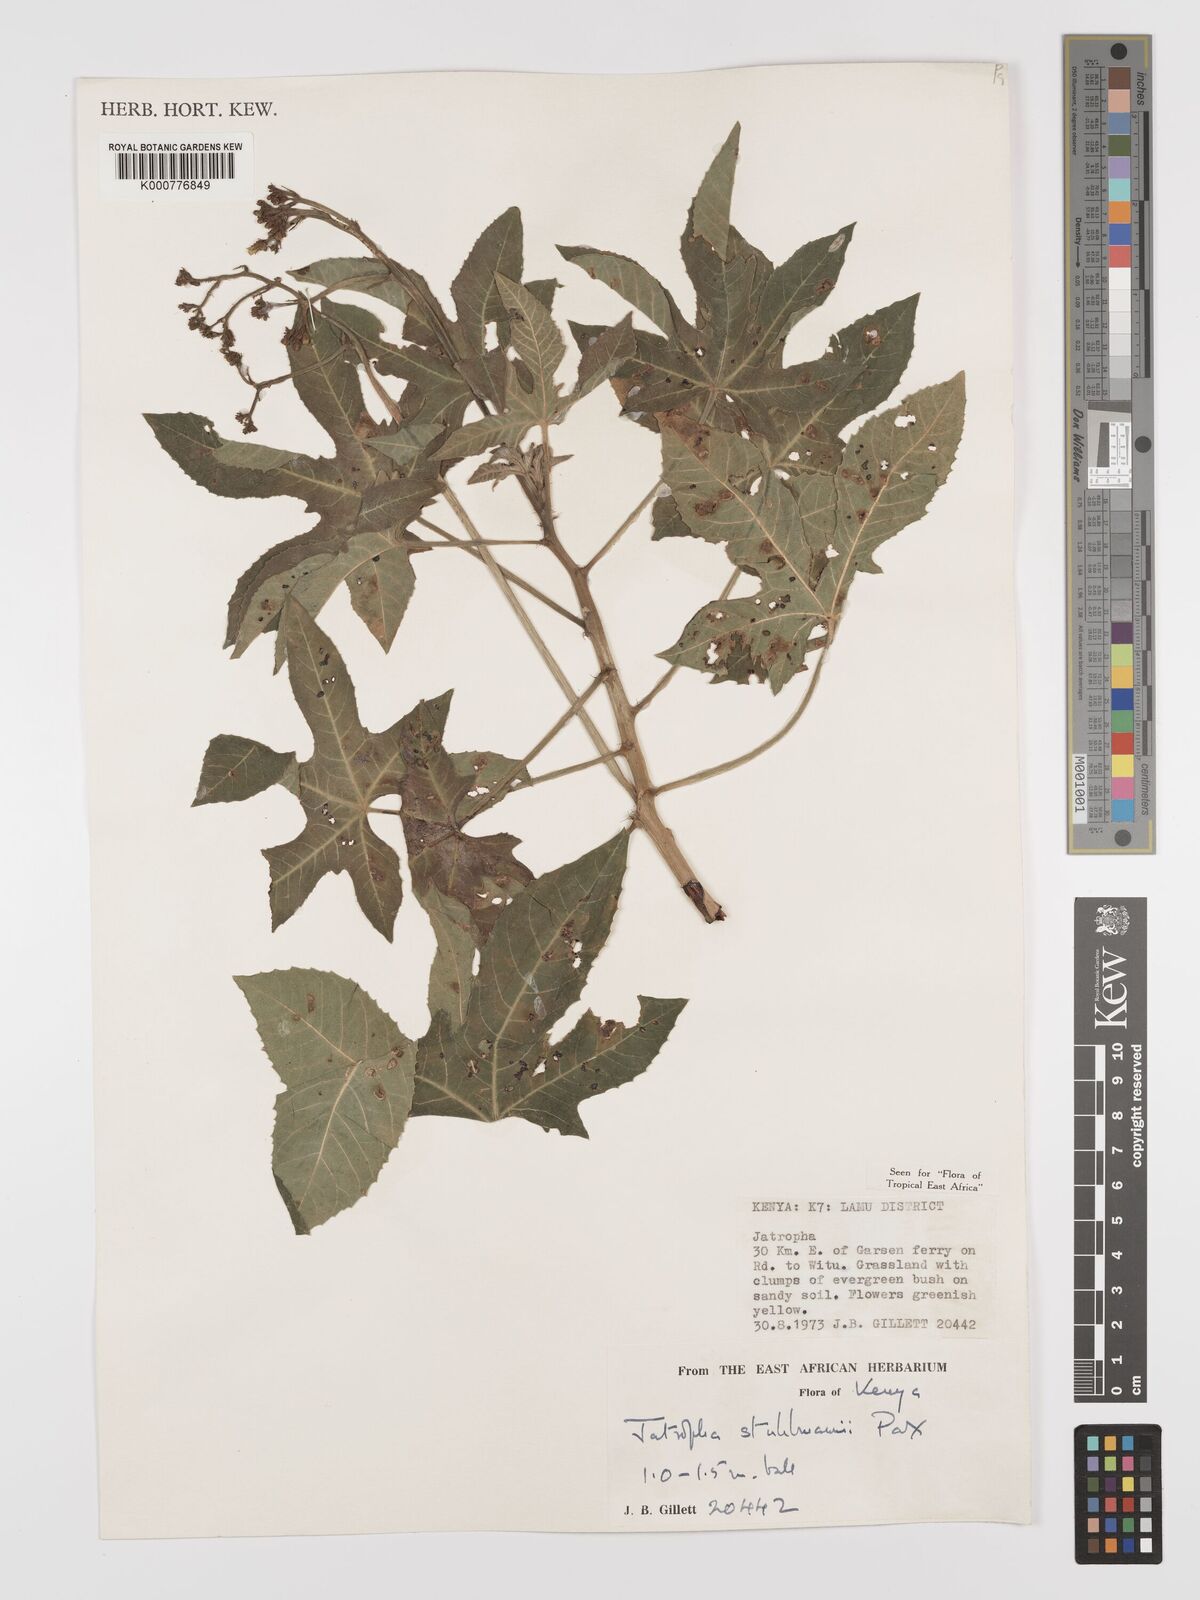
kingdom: Plantae
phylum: Tracheophyta
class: Magnoliopsida
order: Malpighiales
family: Euphorbiaceae
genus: Jatropha
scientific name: Jatropha stuhlmannii
